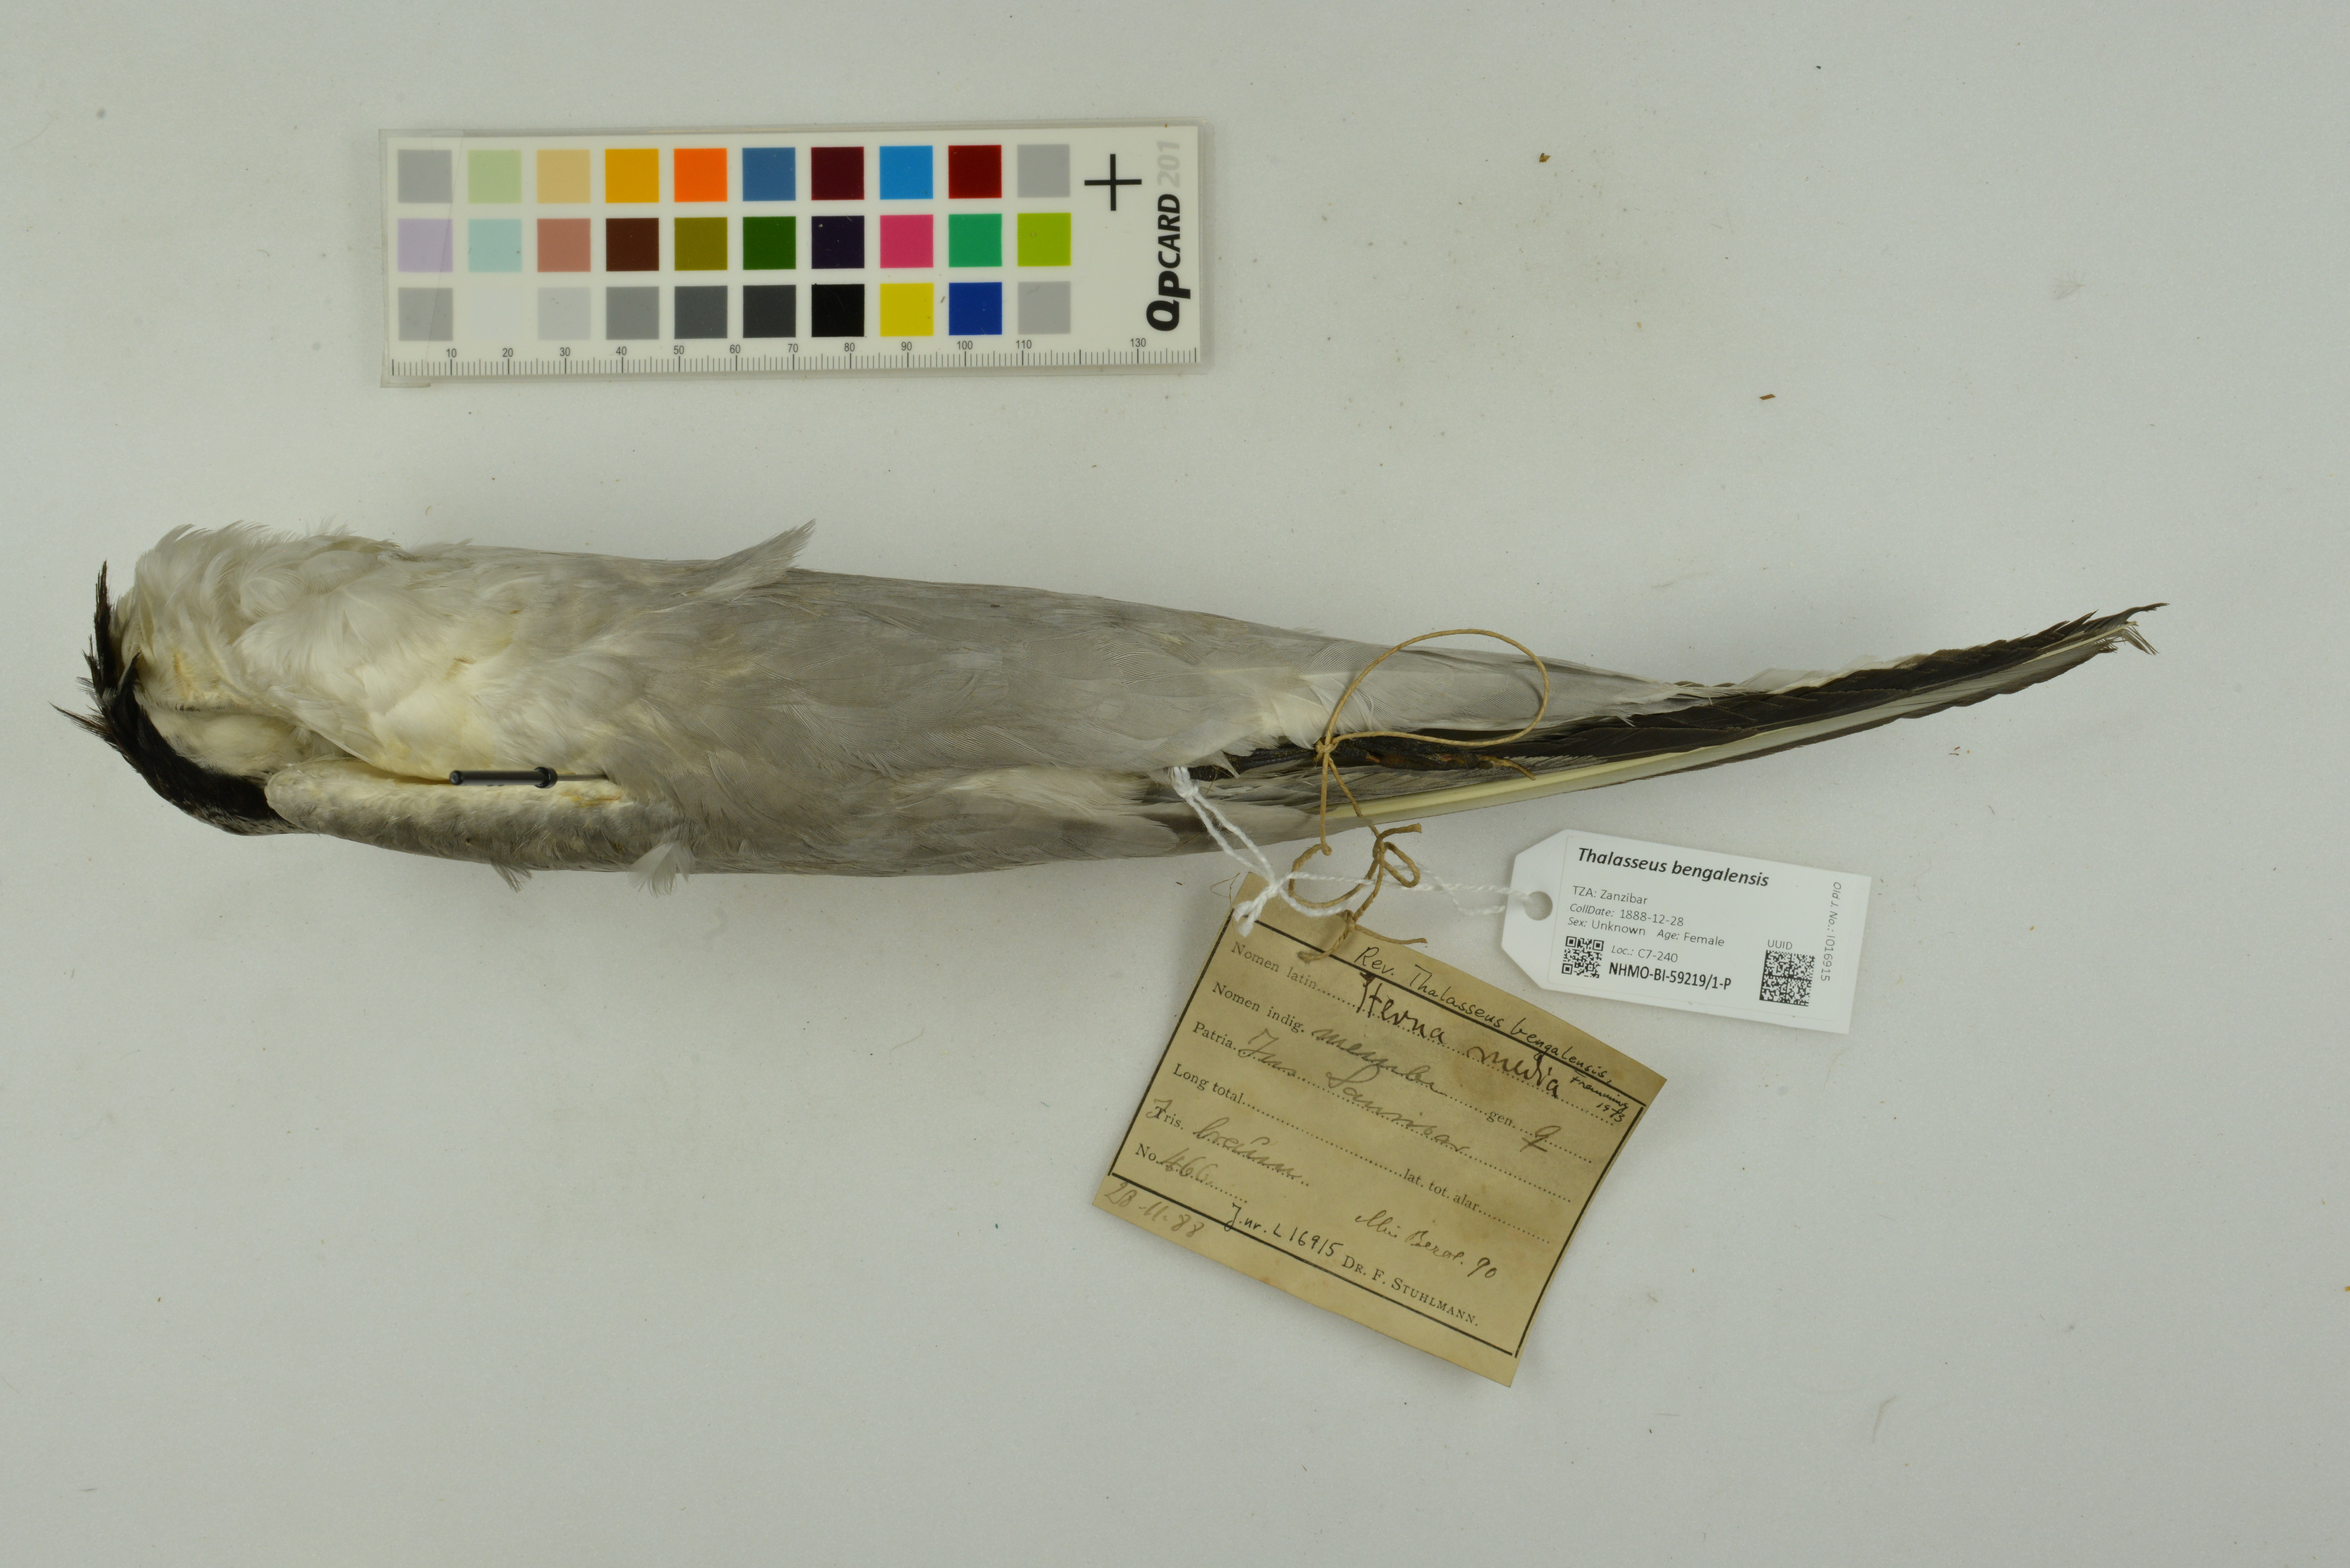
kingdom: Animalia
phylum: Chordata
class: Aves
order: Charadriiformes
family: Laridae
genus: Thalasseus
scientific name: Thalasseus bengalensis
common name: Lesser crested tern
